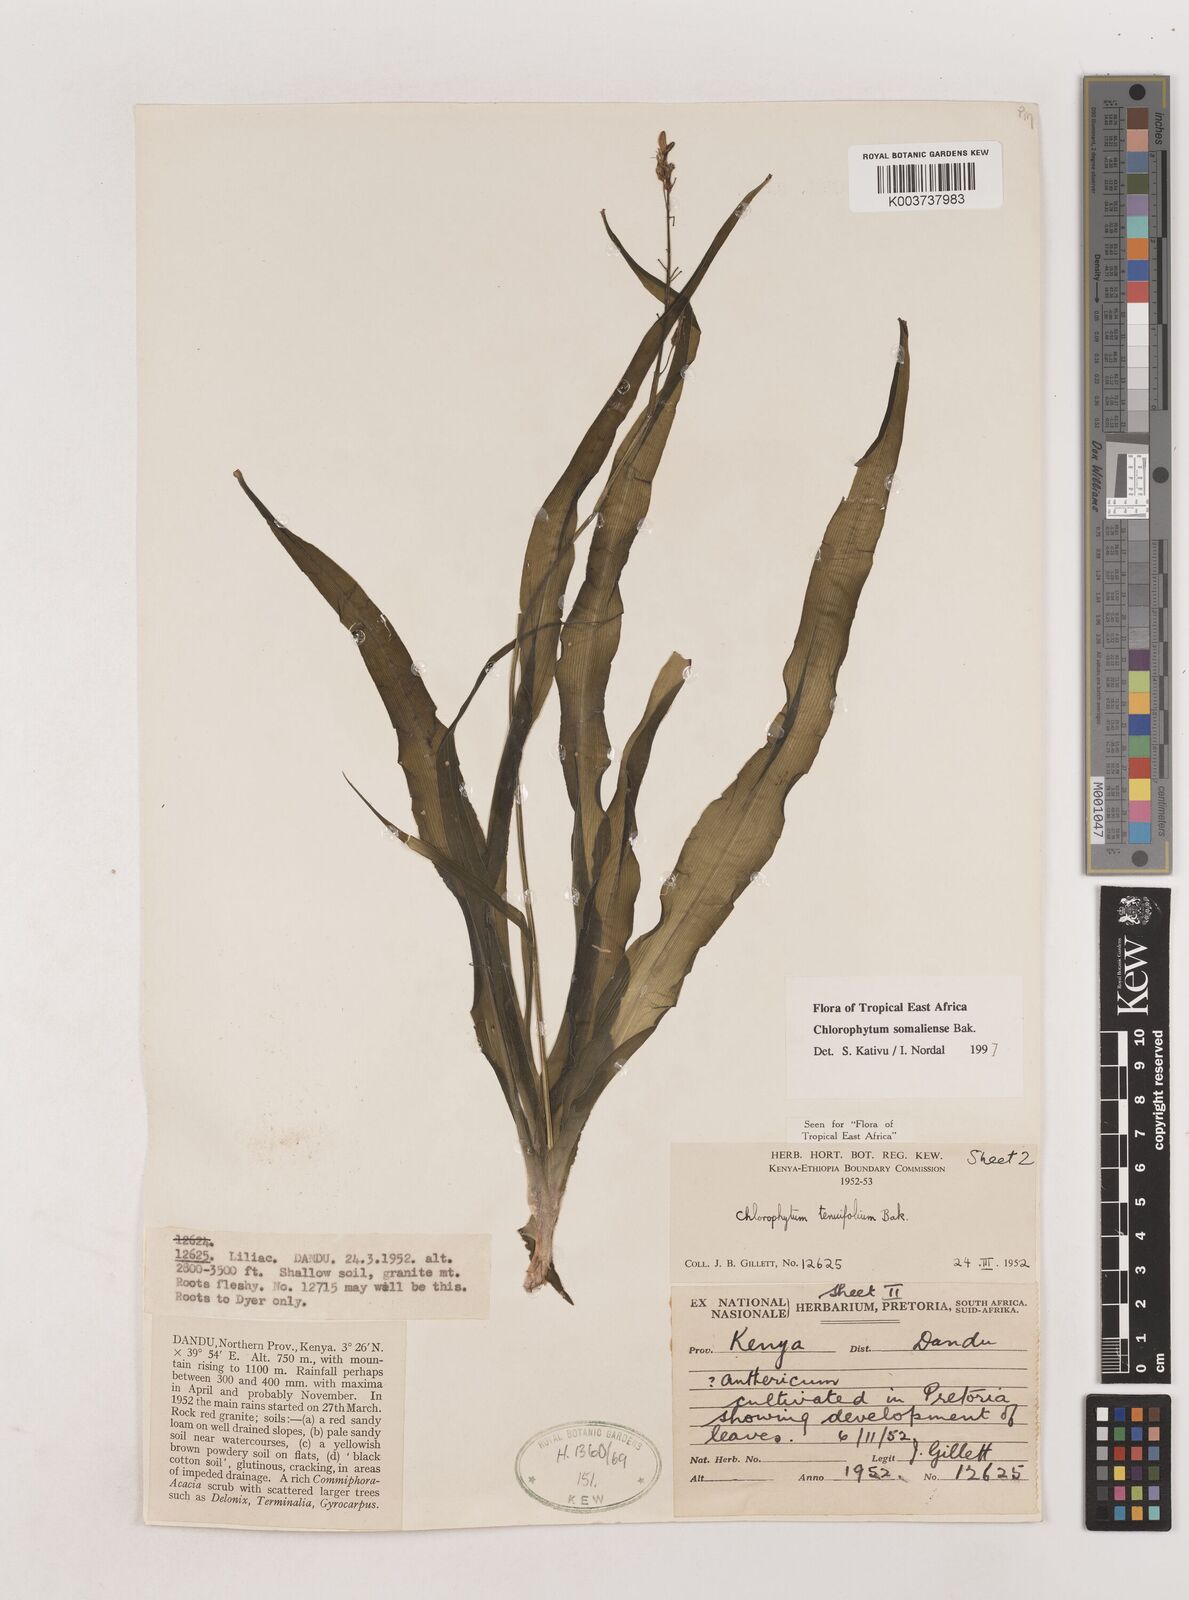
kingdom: Plantae
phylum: Tracheophyta
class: Liliopsida
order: Asparagales
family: Asparagaceae
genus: Chlorophytum
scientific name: Chlorophytum somaliense
